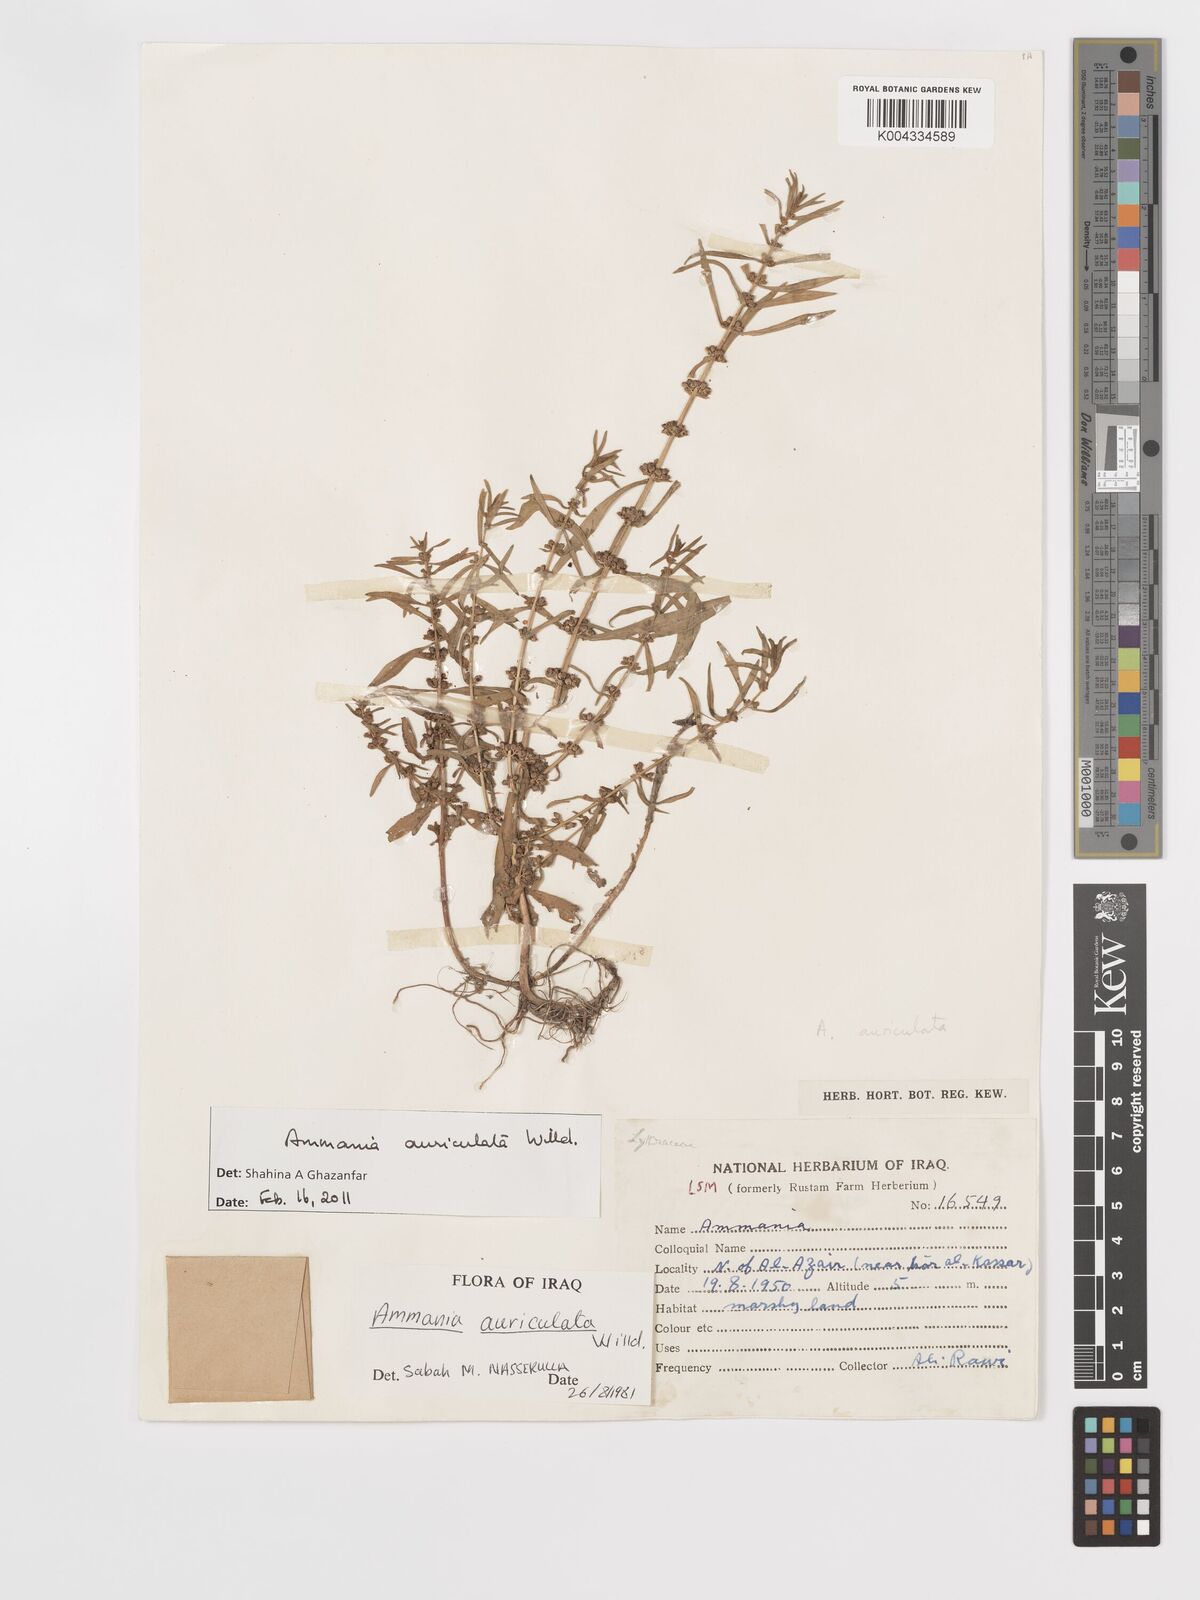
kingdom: Plantae
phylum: Tracheophyta
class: Magnoliopsida
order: Myrtales
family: Lythraceae
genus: Ammannia
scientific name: Ammannia auriculata
